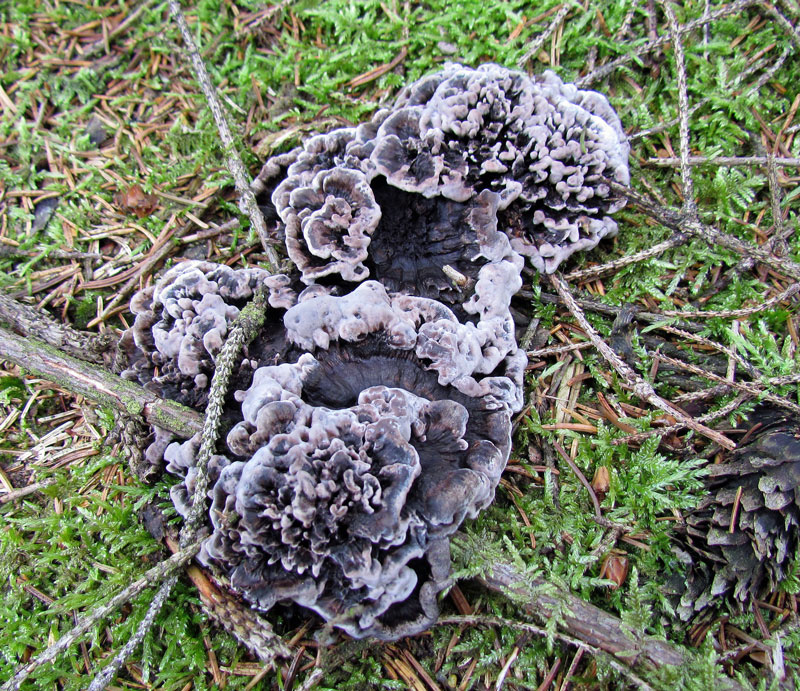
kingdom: Fungi
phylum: Basidiomycota
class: Agaricomycetes
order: Thelephorales
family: Thelephoraceae
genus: Phellodon
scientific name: Phellodon tomentosus
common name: vellugtende duftpigsvamp
